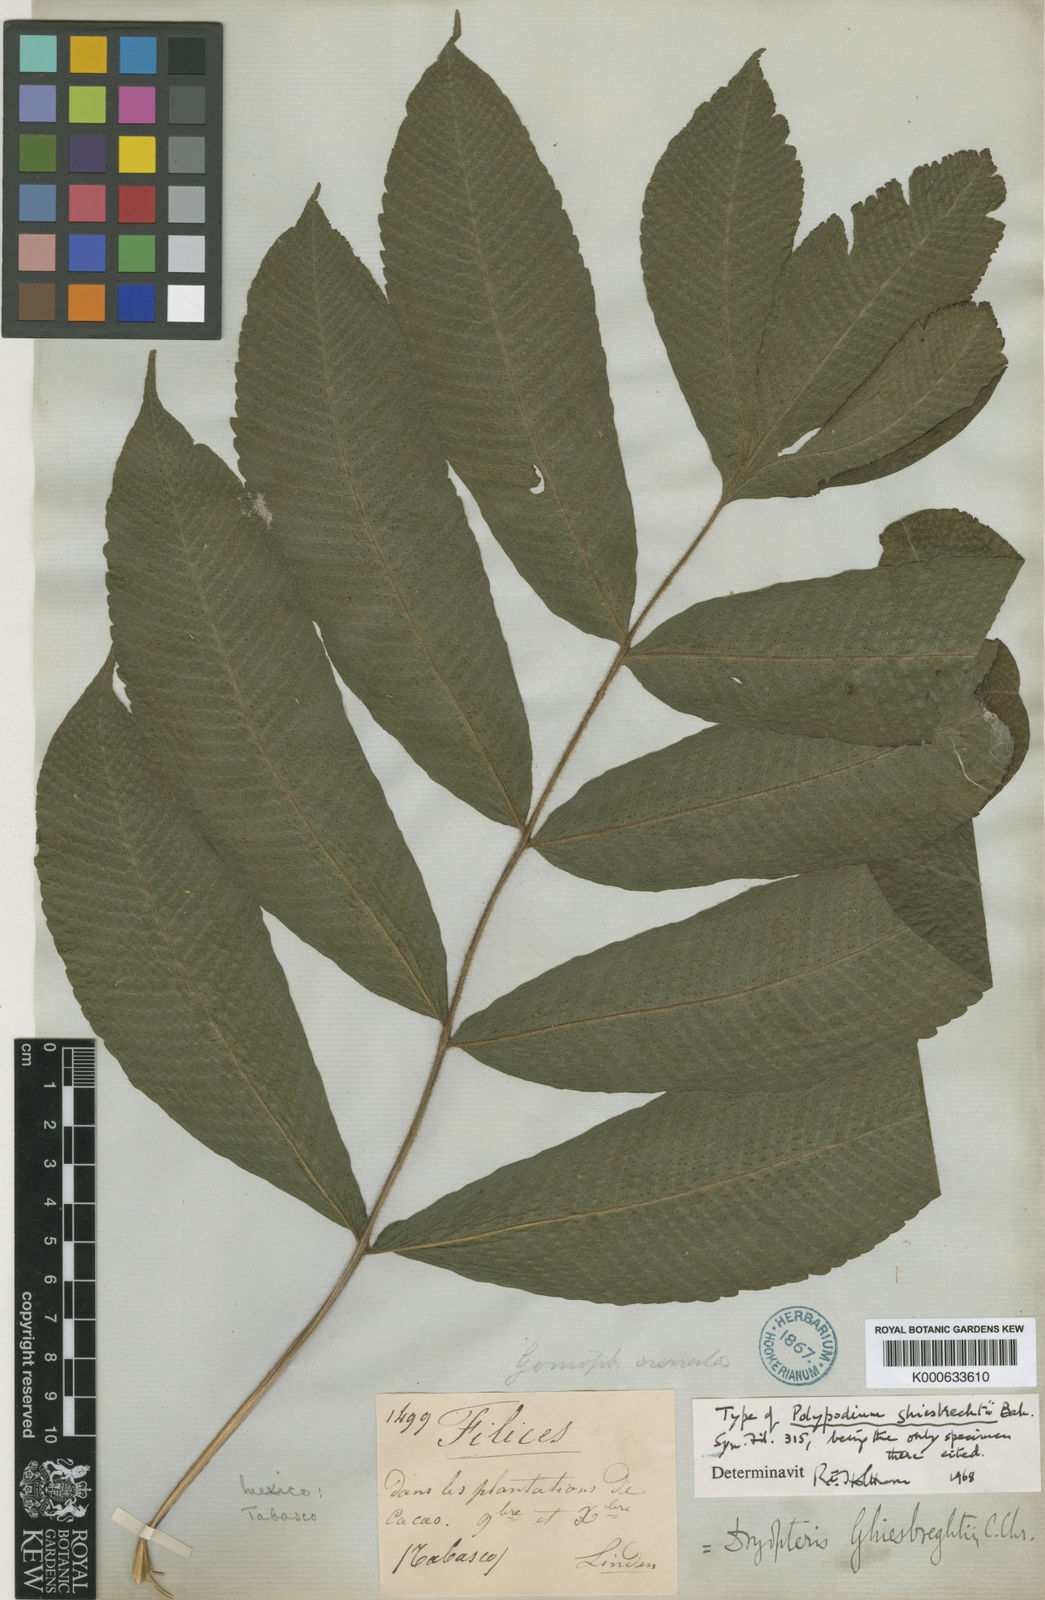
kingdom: Plantae
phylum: Tracheophyta
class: Polypodiopsida
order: Polypodiales
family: Thelypteridaceae
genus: Goniopteris
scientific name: Goniopteris ghiesbrechtii
